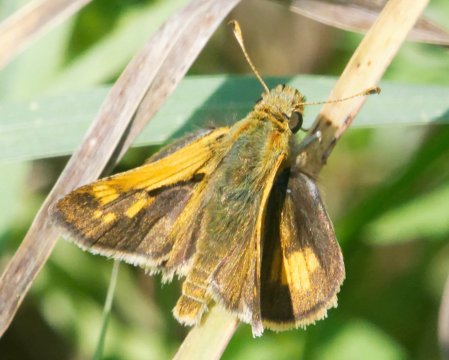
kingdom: Animalia
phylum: Arthropoda
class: Insecta
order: Lepidoptera
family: Hesperiidae
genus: Polites
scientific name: Polites coras
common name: Peck's Skipper
